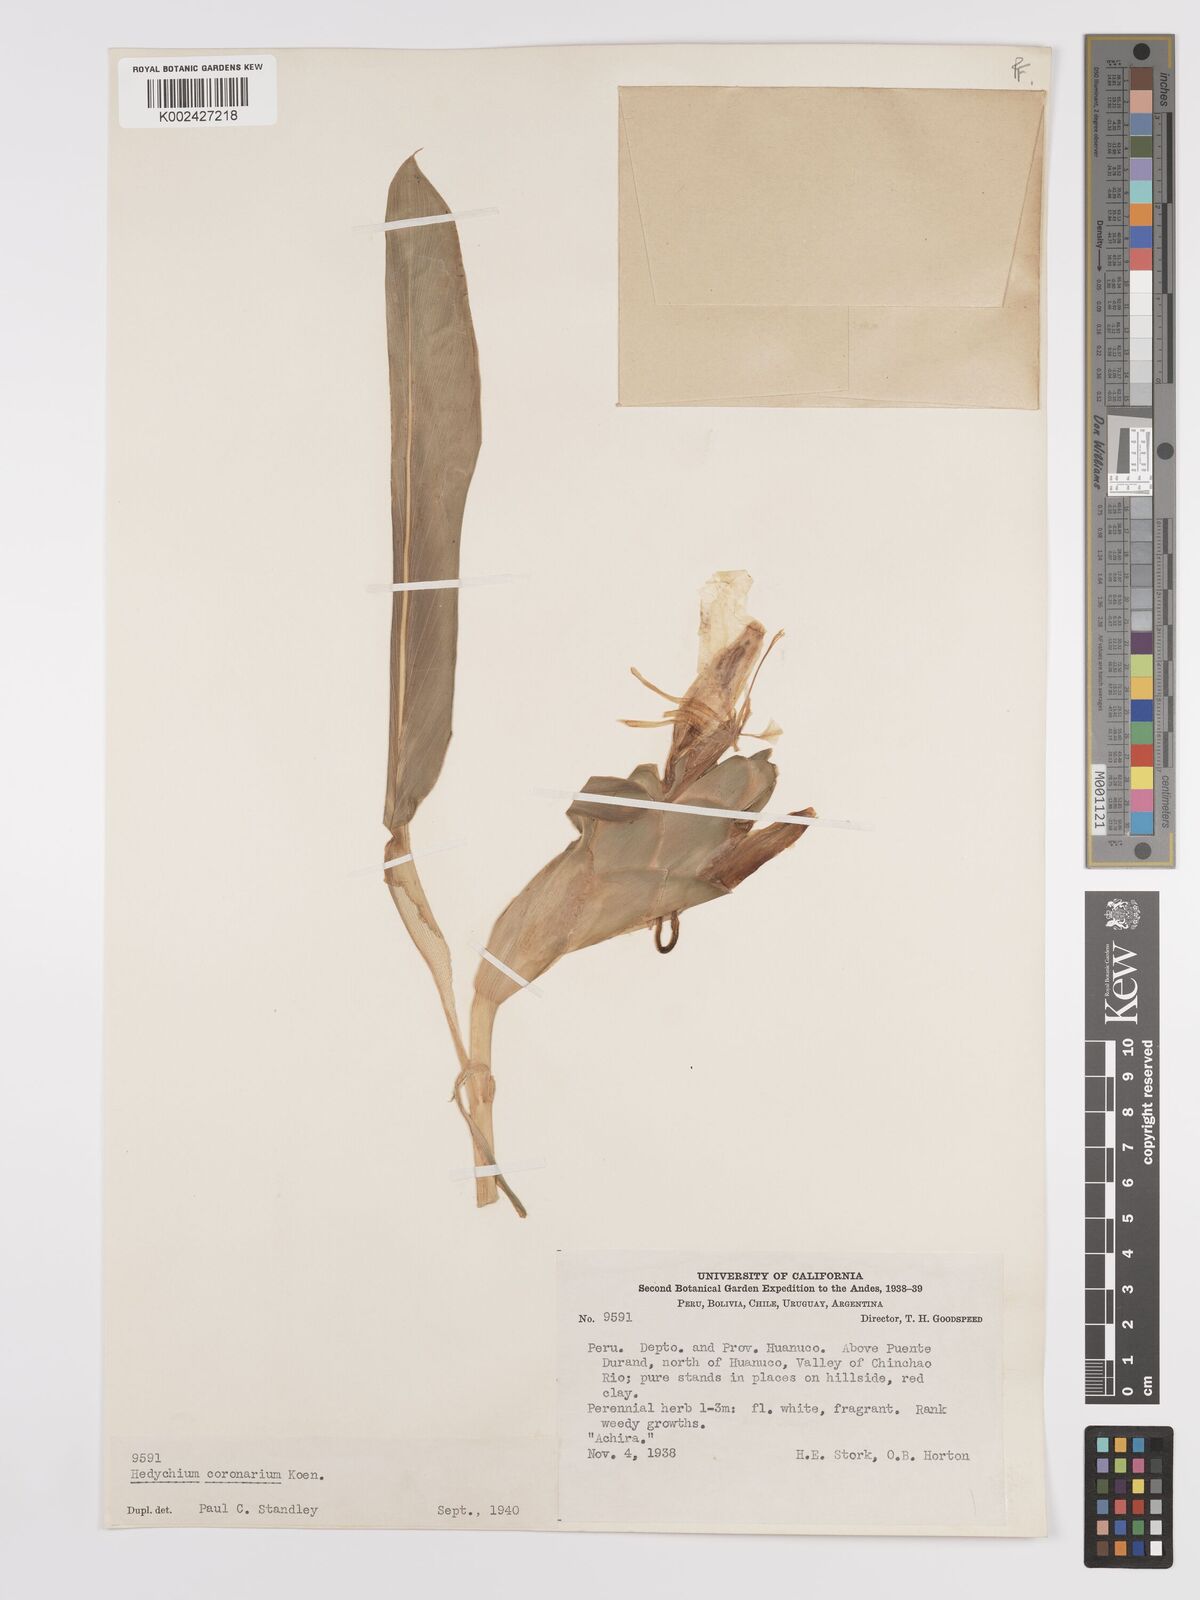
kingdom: Plantae
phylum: Tracheophyta
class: Liliopsida
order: Zingiberales
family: Zingiberaceae
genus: Hedychium
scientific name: Hedychium coronarium
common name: White garland-lily
